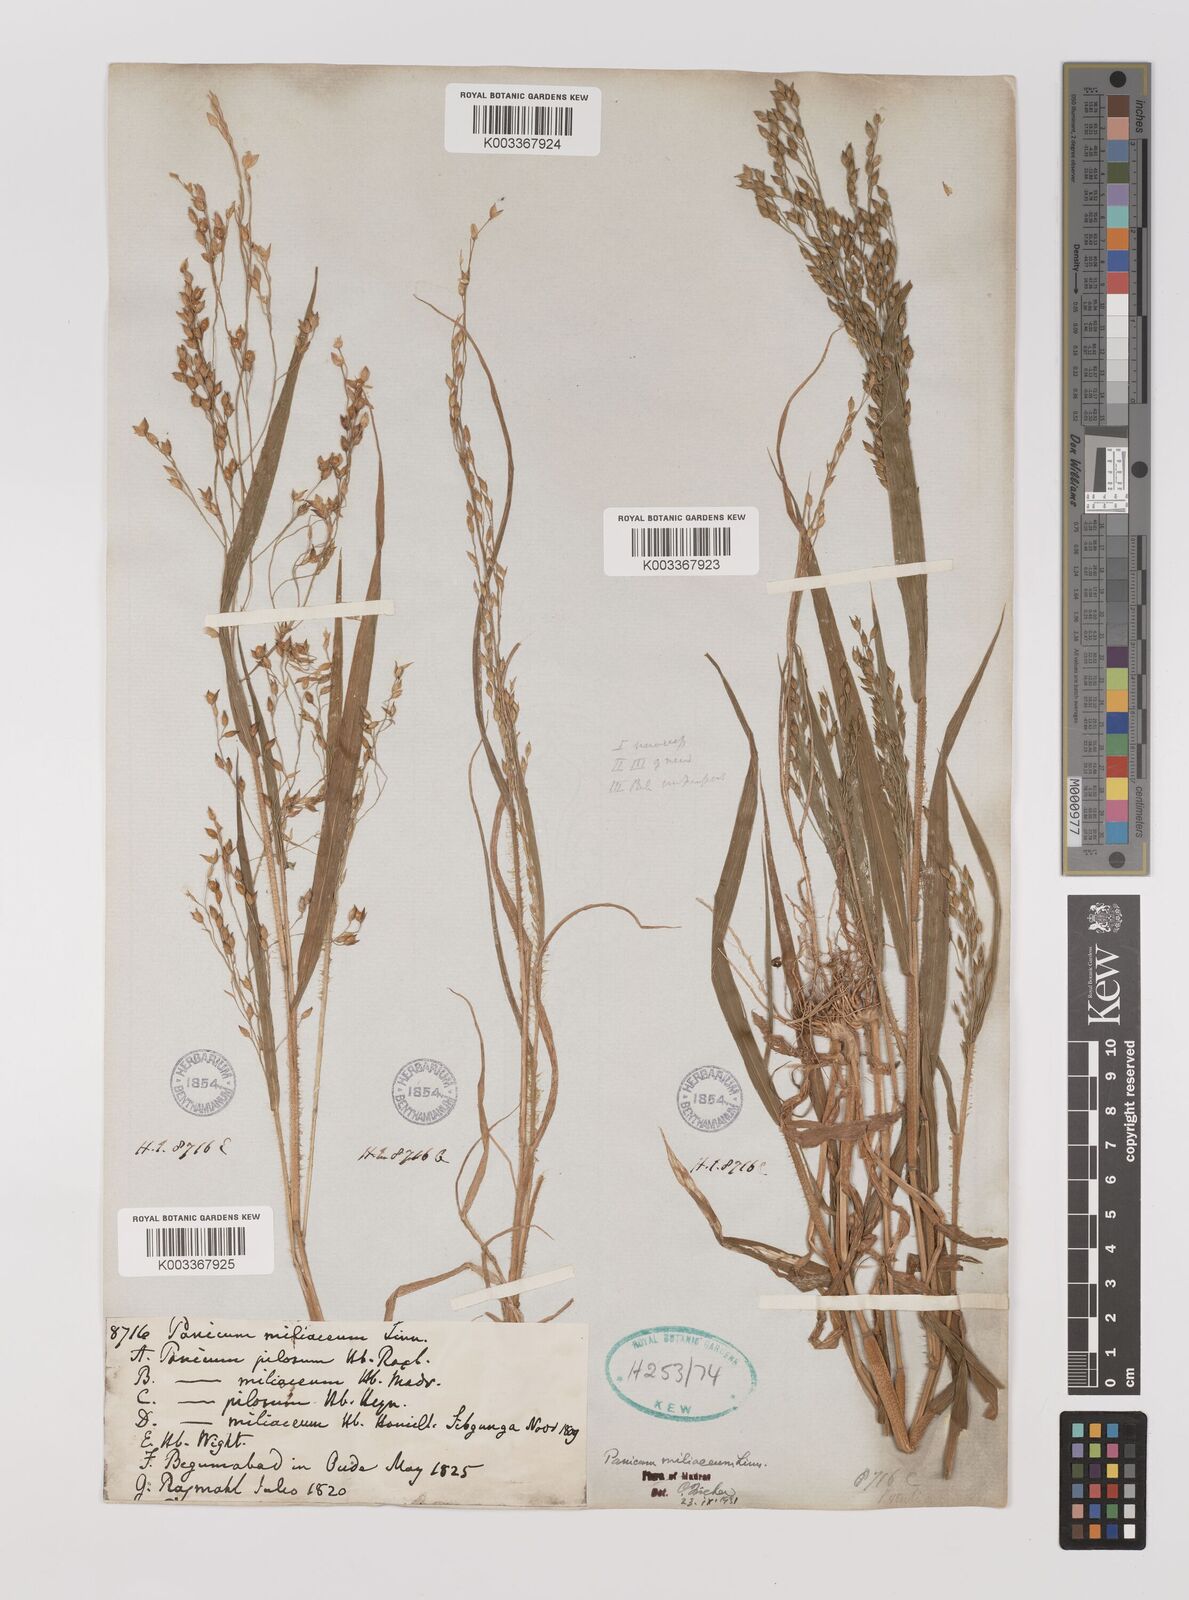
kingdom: Plantae
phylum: Tracheophyta
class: Liliopsida
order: Poales
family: Poaceae
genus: Panicum
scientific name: Panicum miliaceum
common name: Common millet
